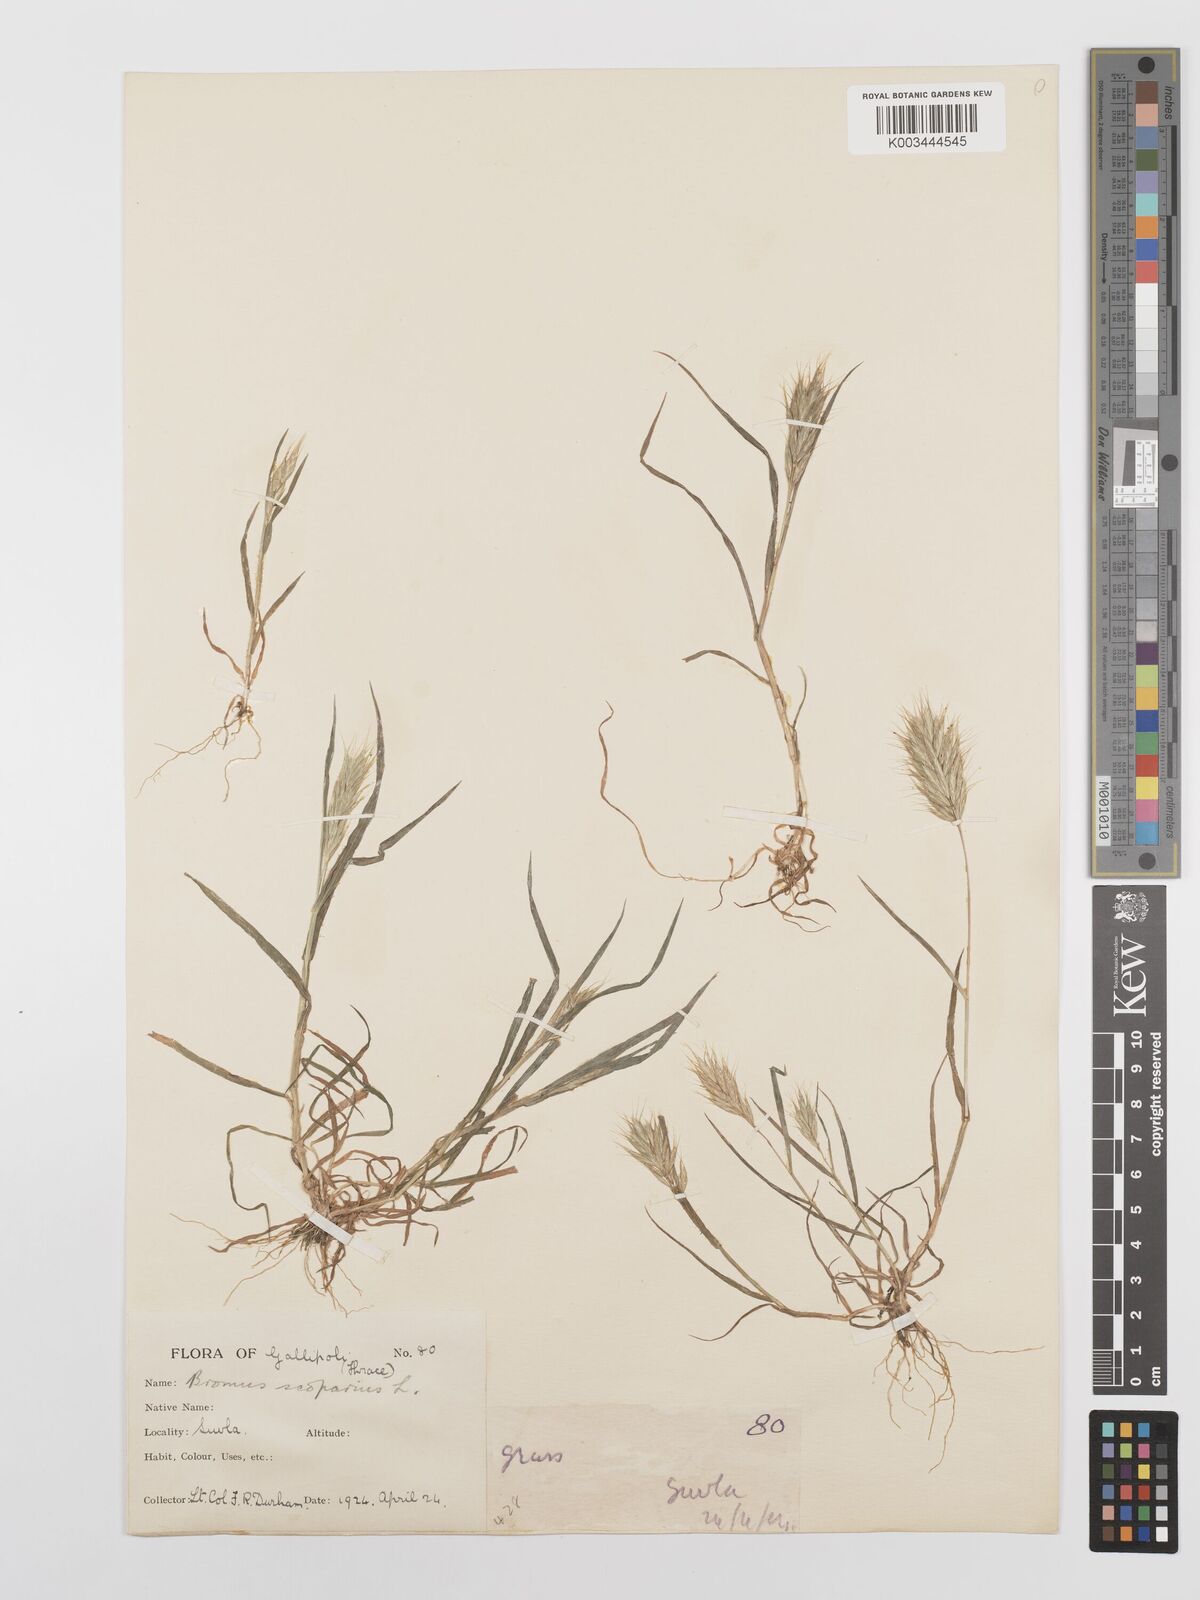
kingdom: Plantae
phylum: Tracheophyta
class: Liliopsida
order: Poales
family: Poaceae
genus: Bromus
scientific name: Bromus scoparius
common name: Broom brome
